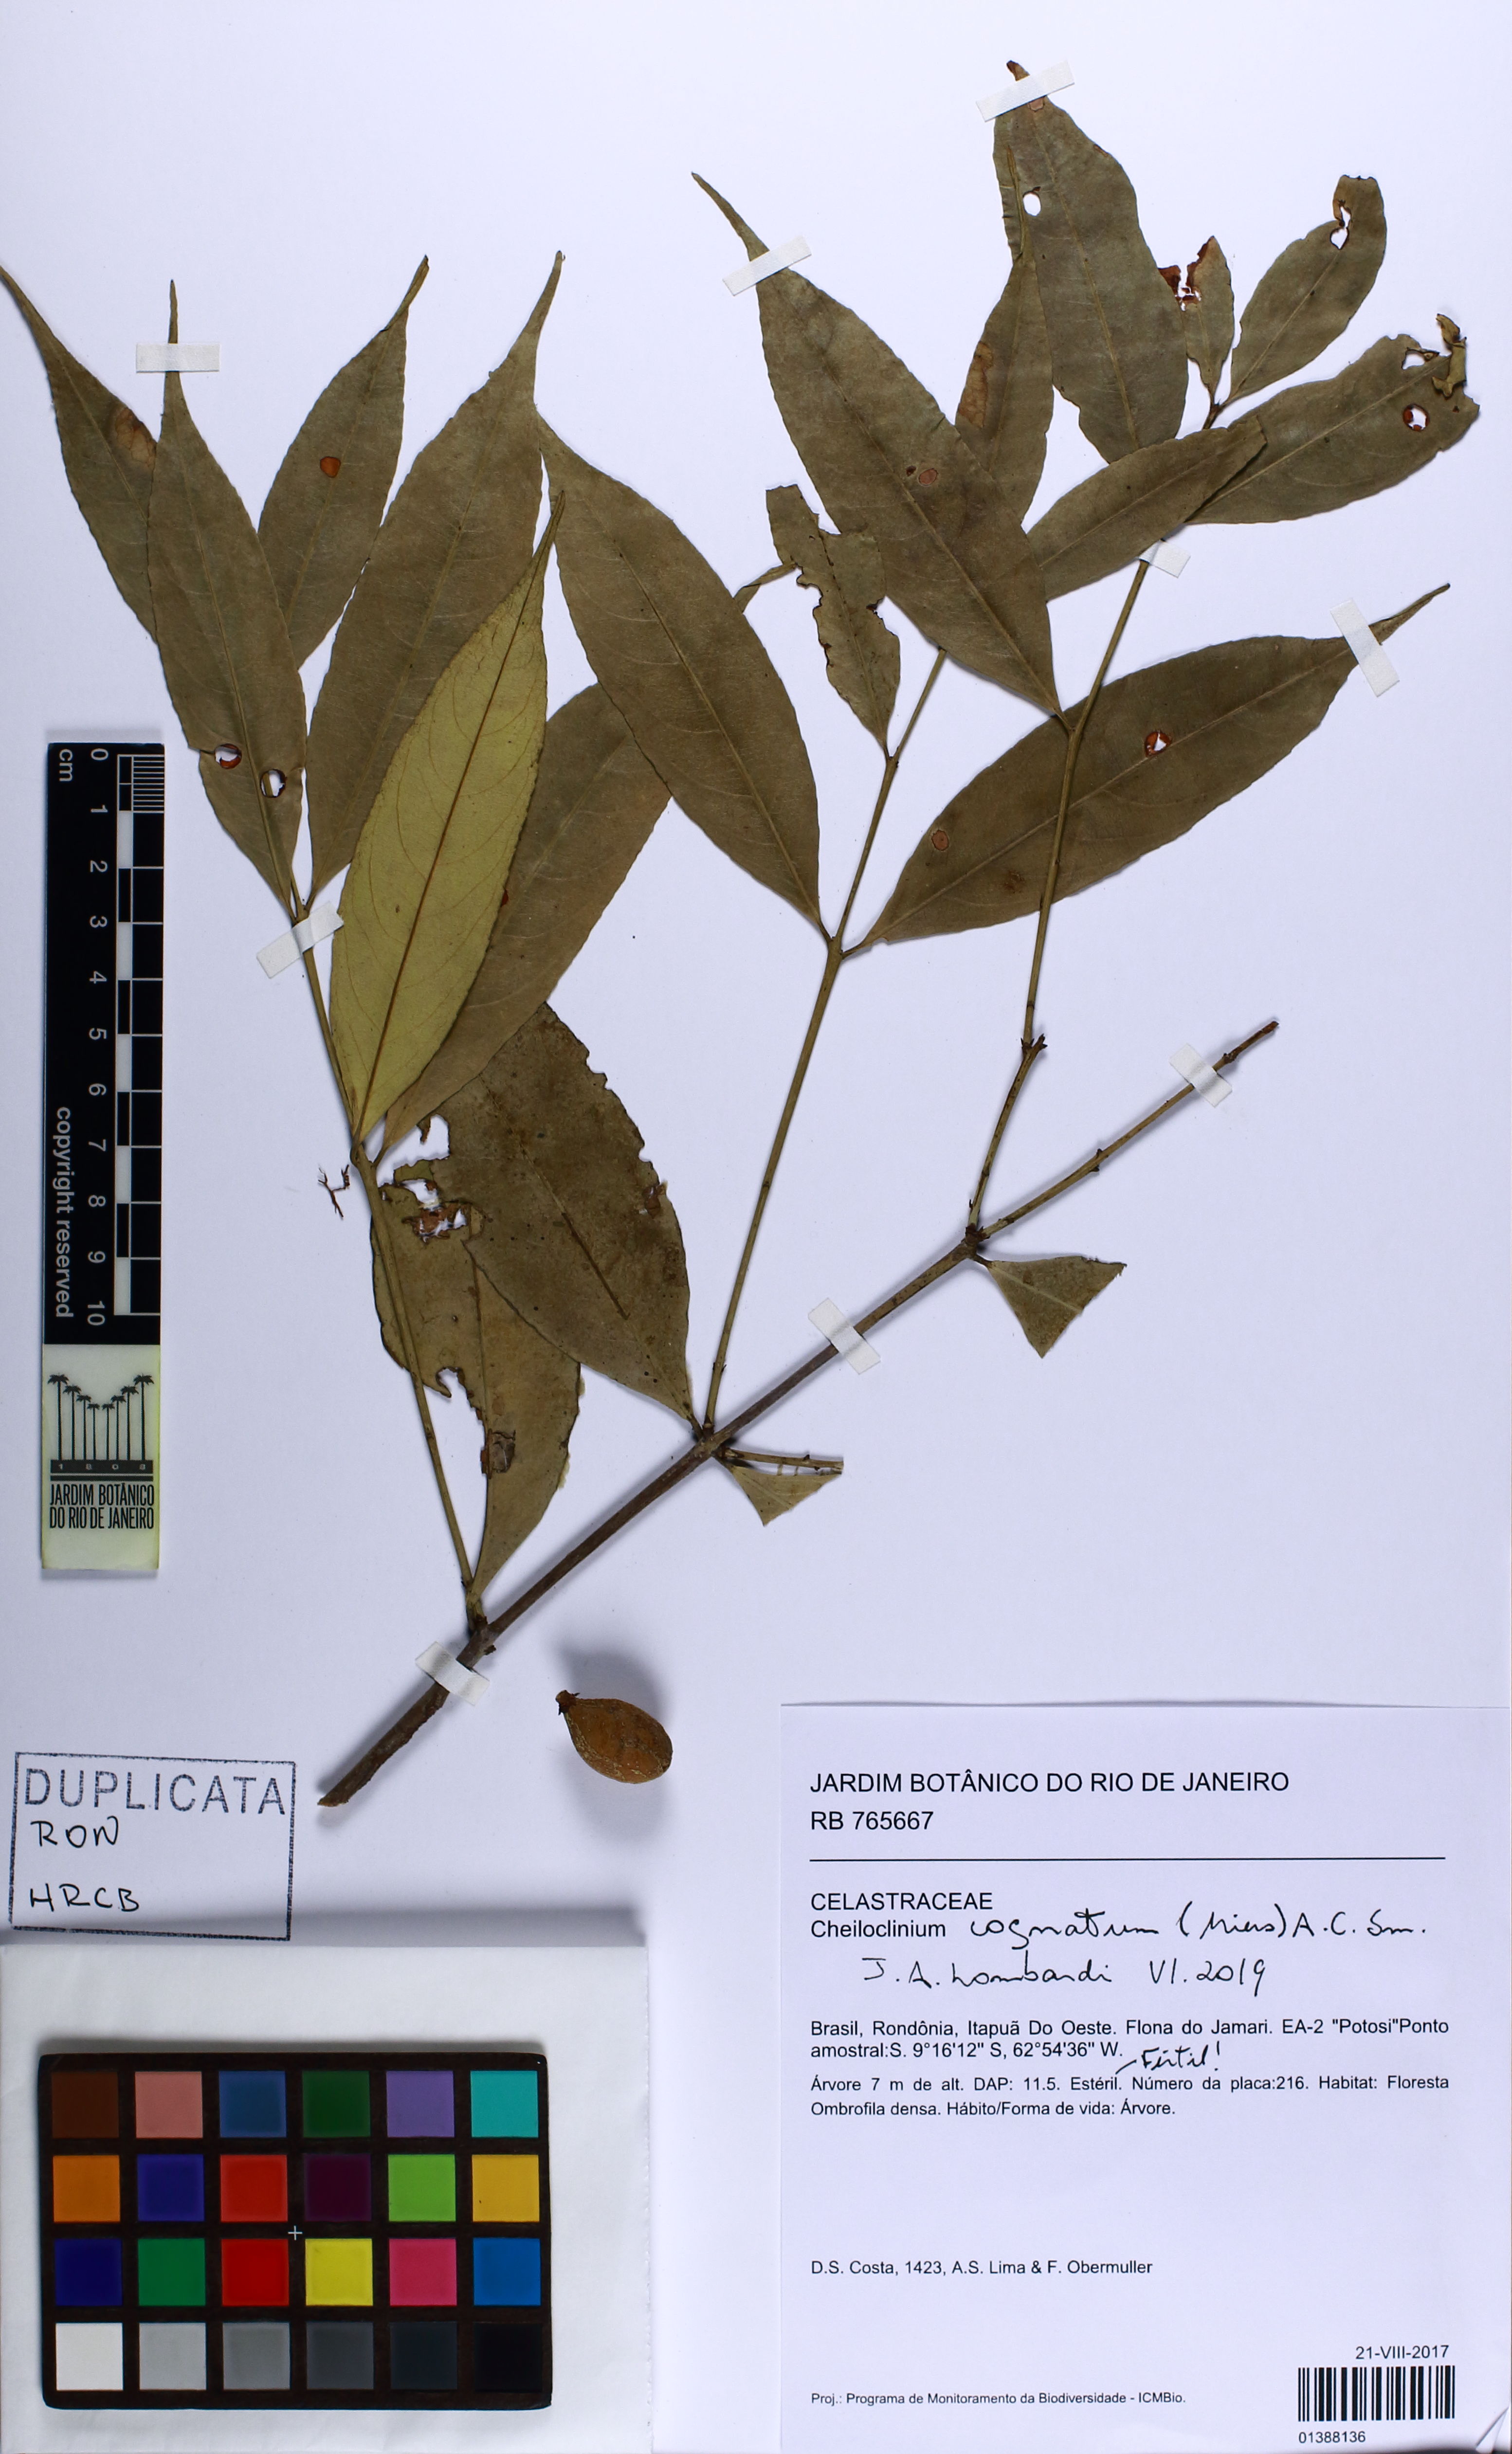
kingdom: Plantae
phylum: Tracheophyta
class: Magnoliopsida
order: Celastrales
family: Celastraceae
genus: Cheiloclinium
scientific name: Cheiloclinium cognatum
